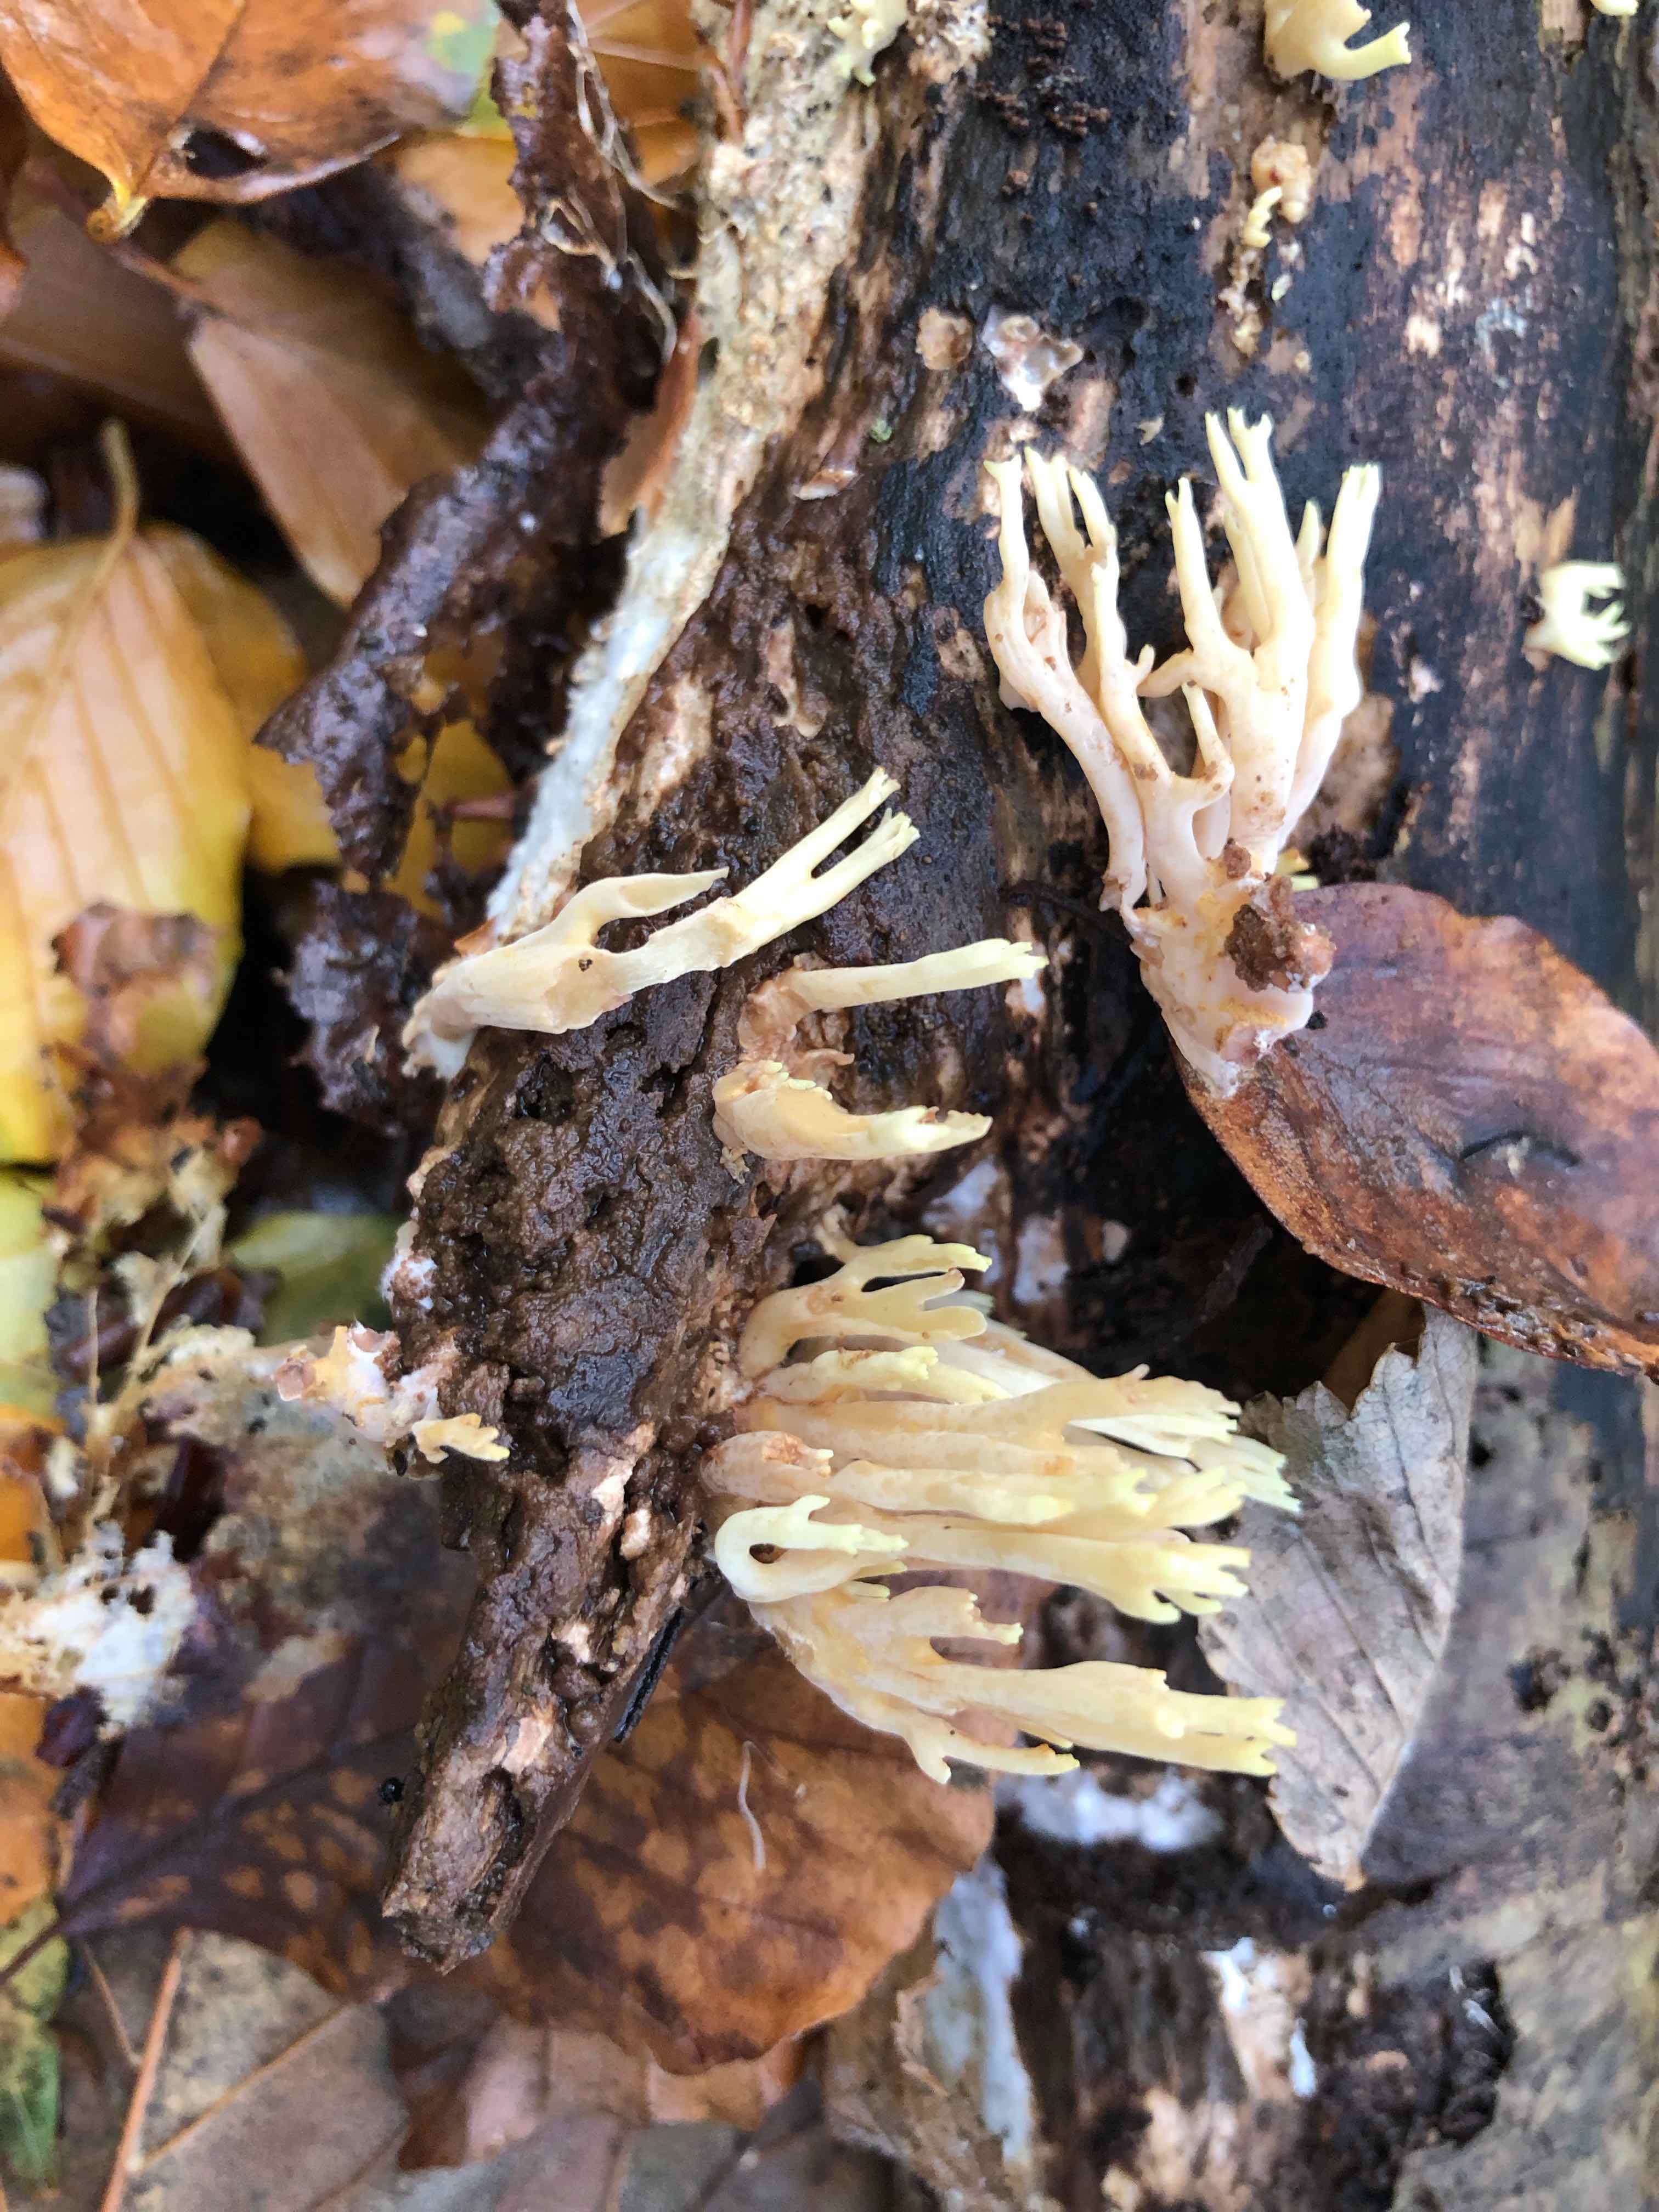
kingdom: Fungi
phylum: Basidiomycota
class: Agaricomycetes
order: Gomphales
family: Gomphaceae
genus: Ramaria
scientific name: Ramaria stricta
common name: rank koralsvamp
